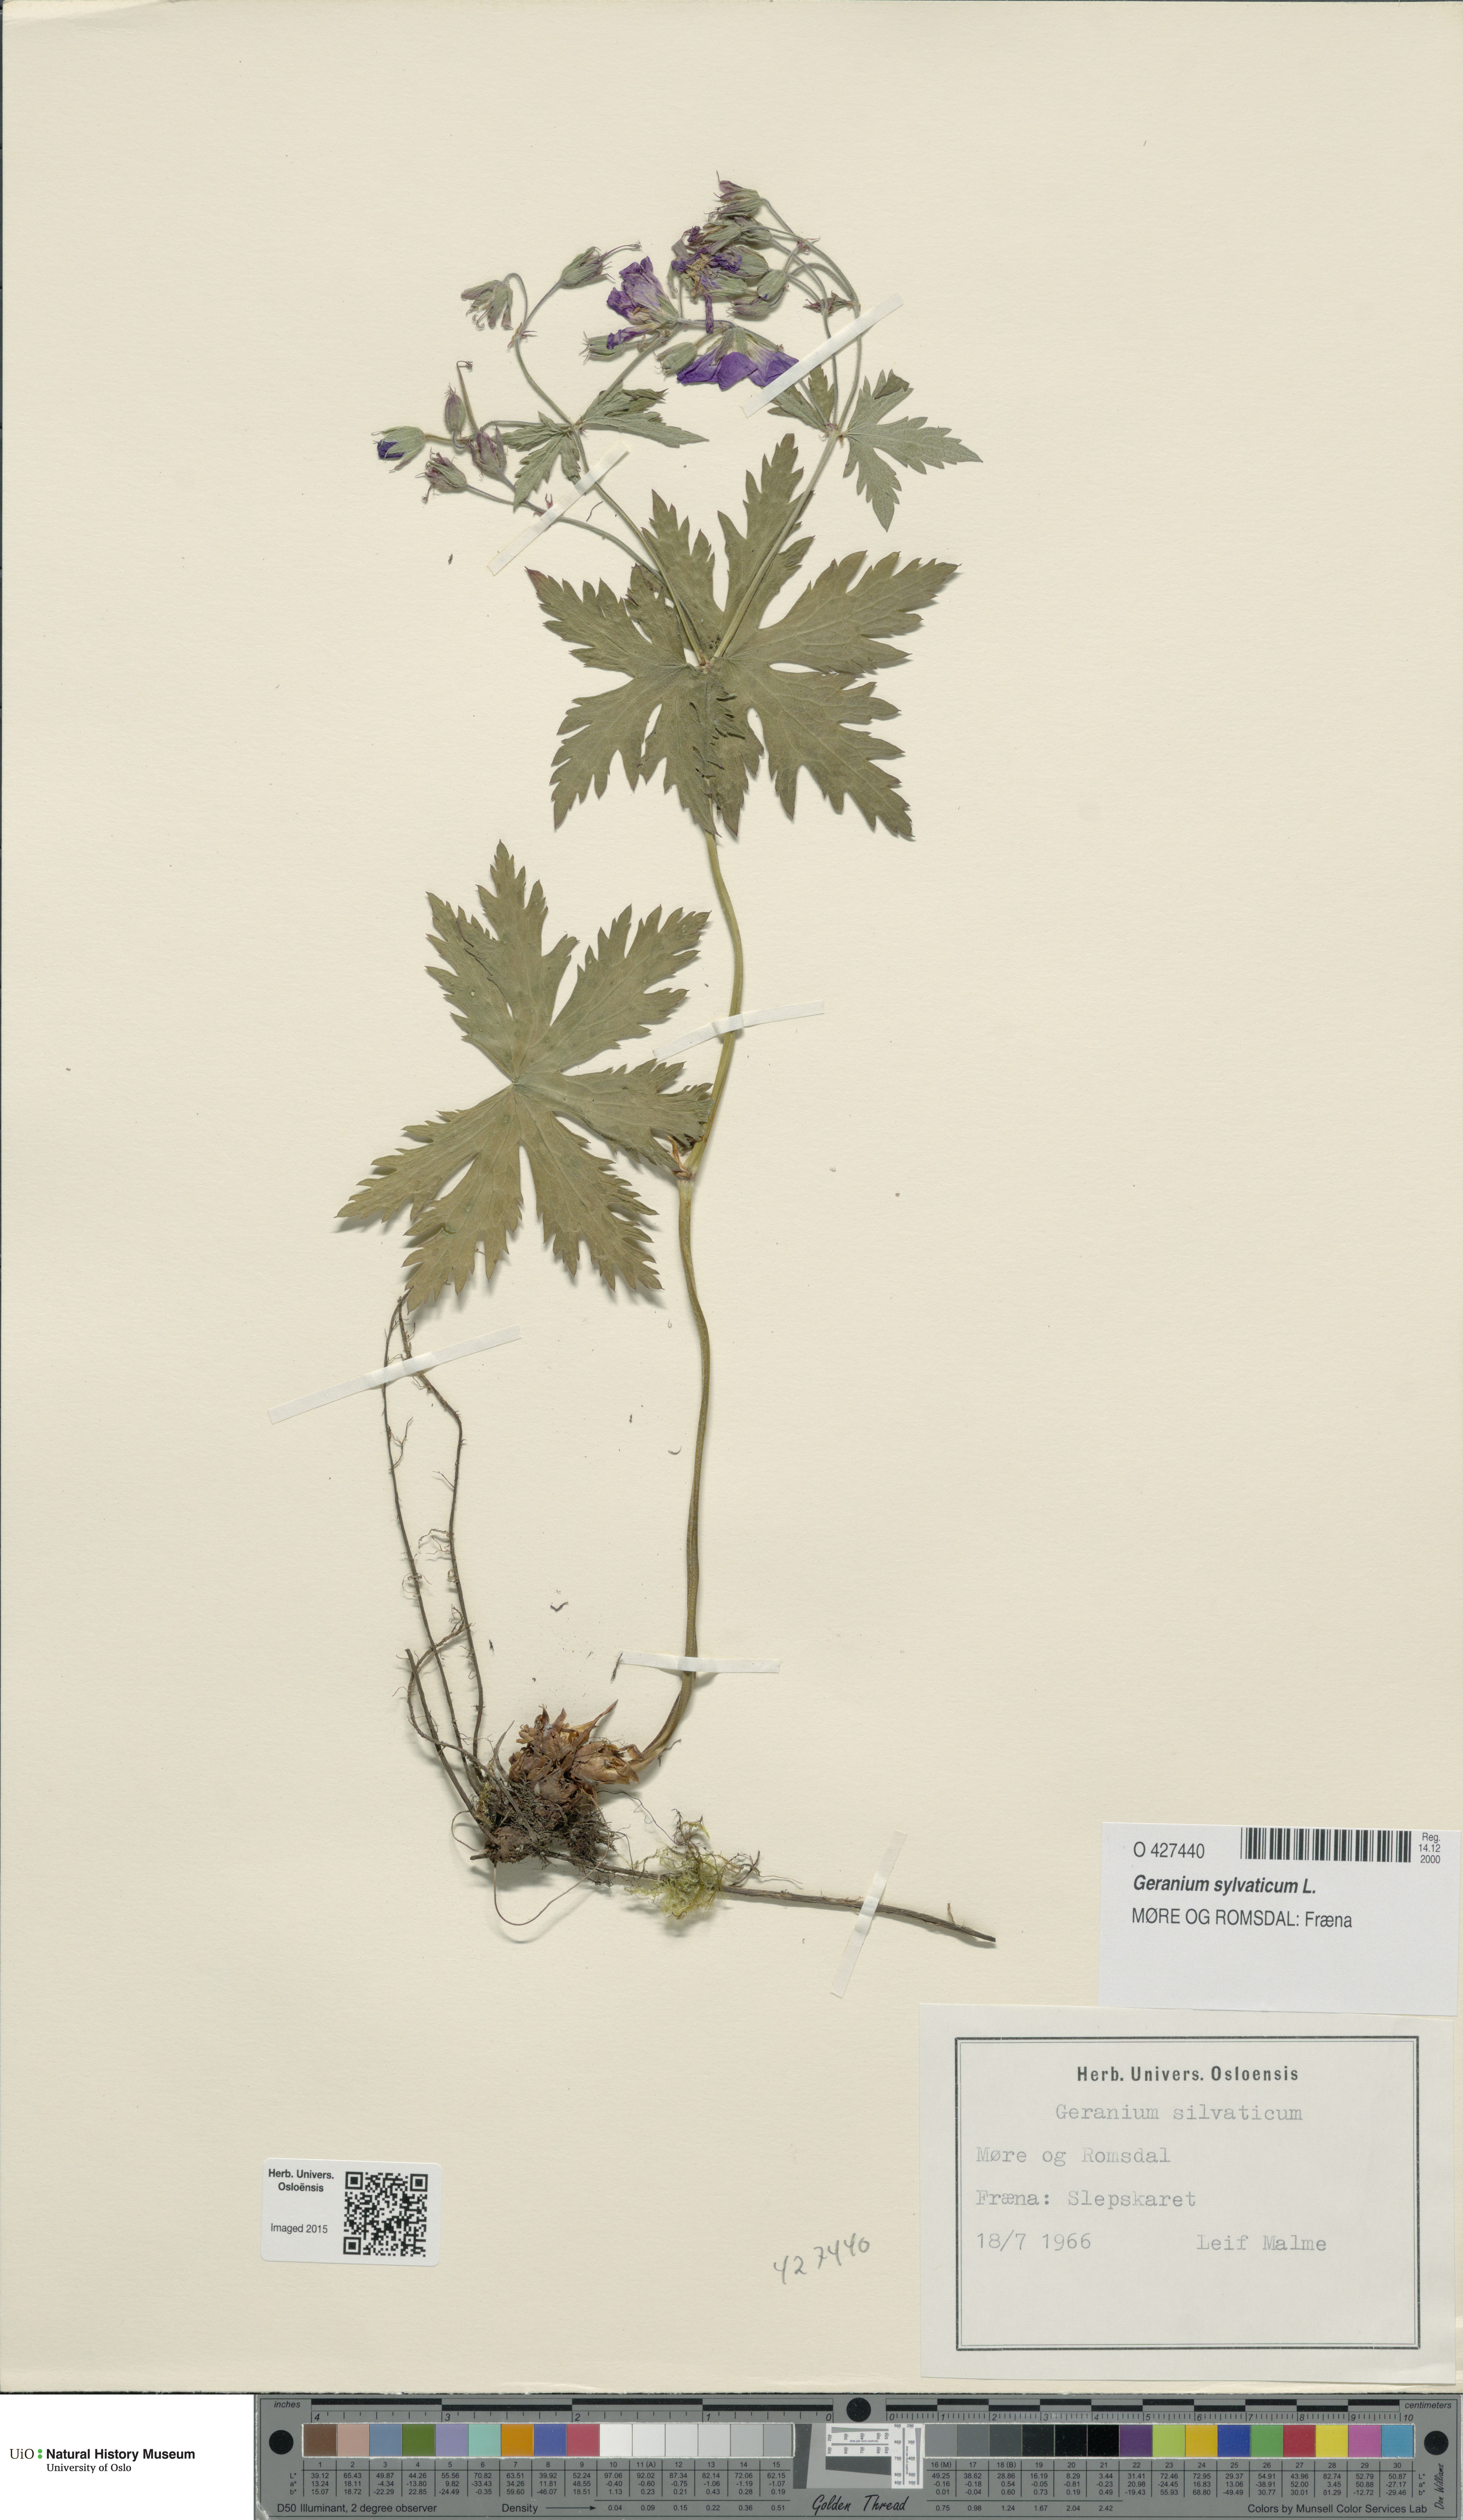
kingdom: Plantae
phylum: Tracheophyta
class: Magnoliopsida
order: Geraniales
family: Geraniaceae
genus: Geranium
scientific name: Geranium sylvaticum
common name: Wood crane's-bill
